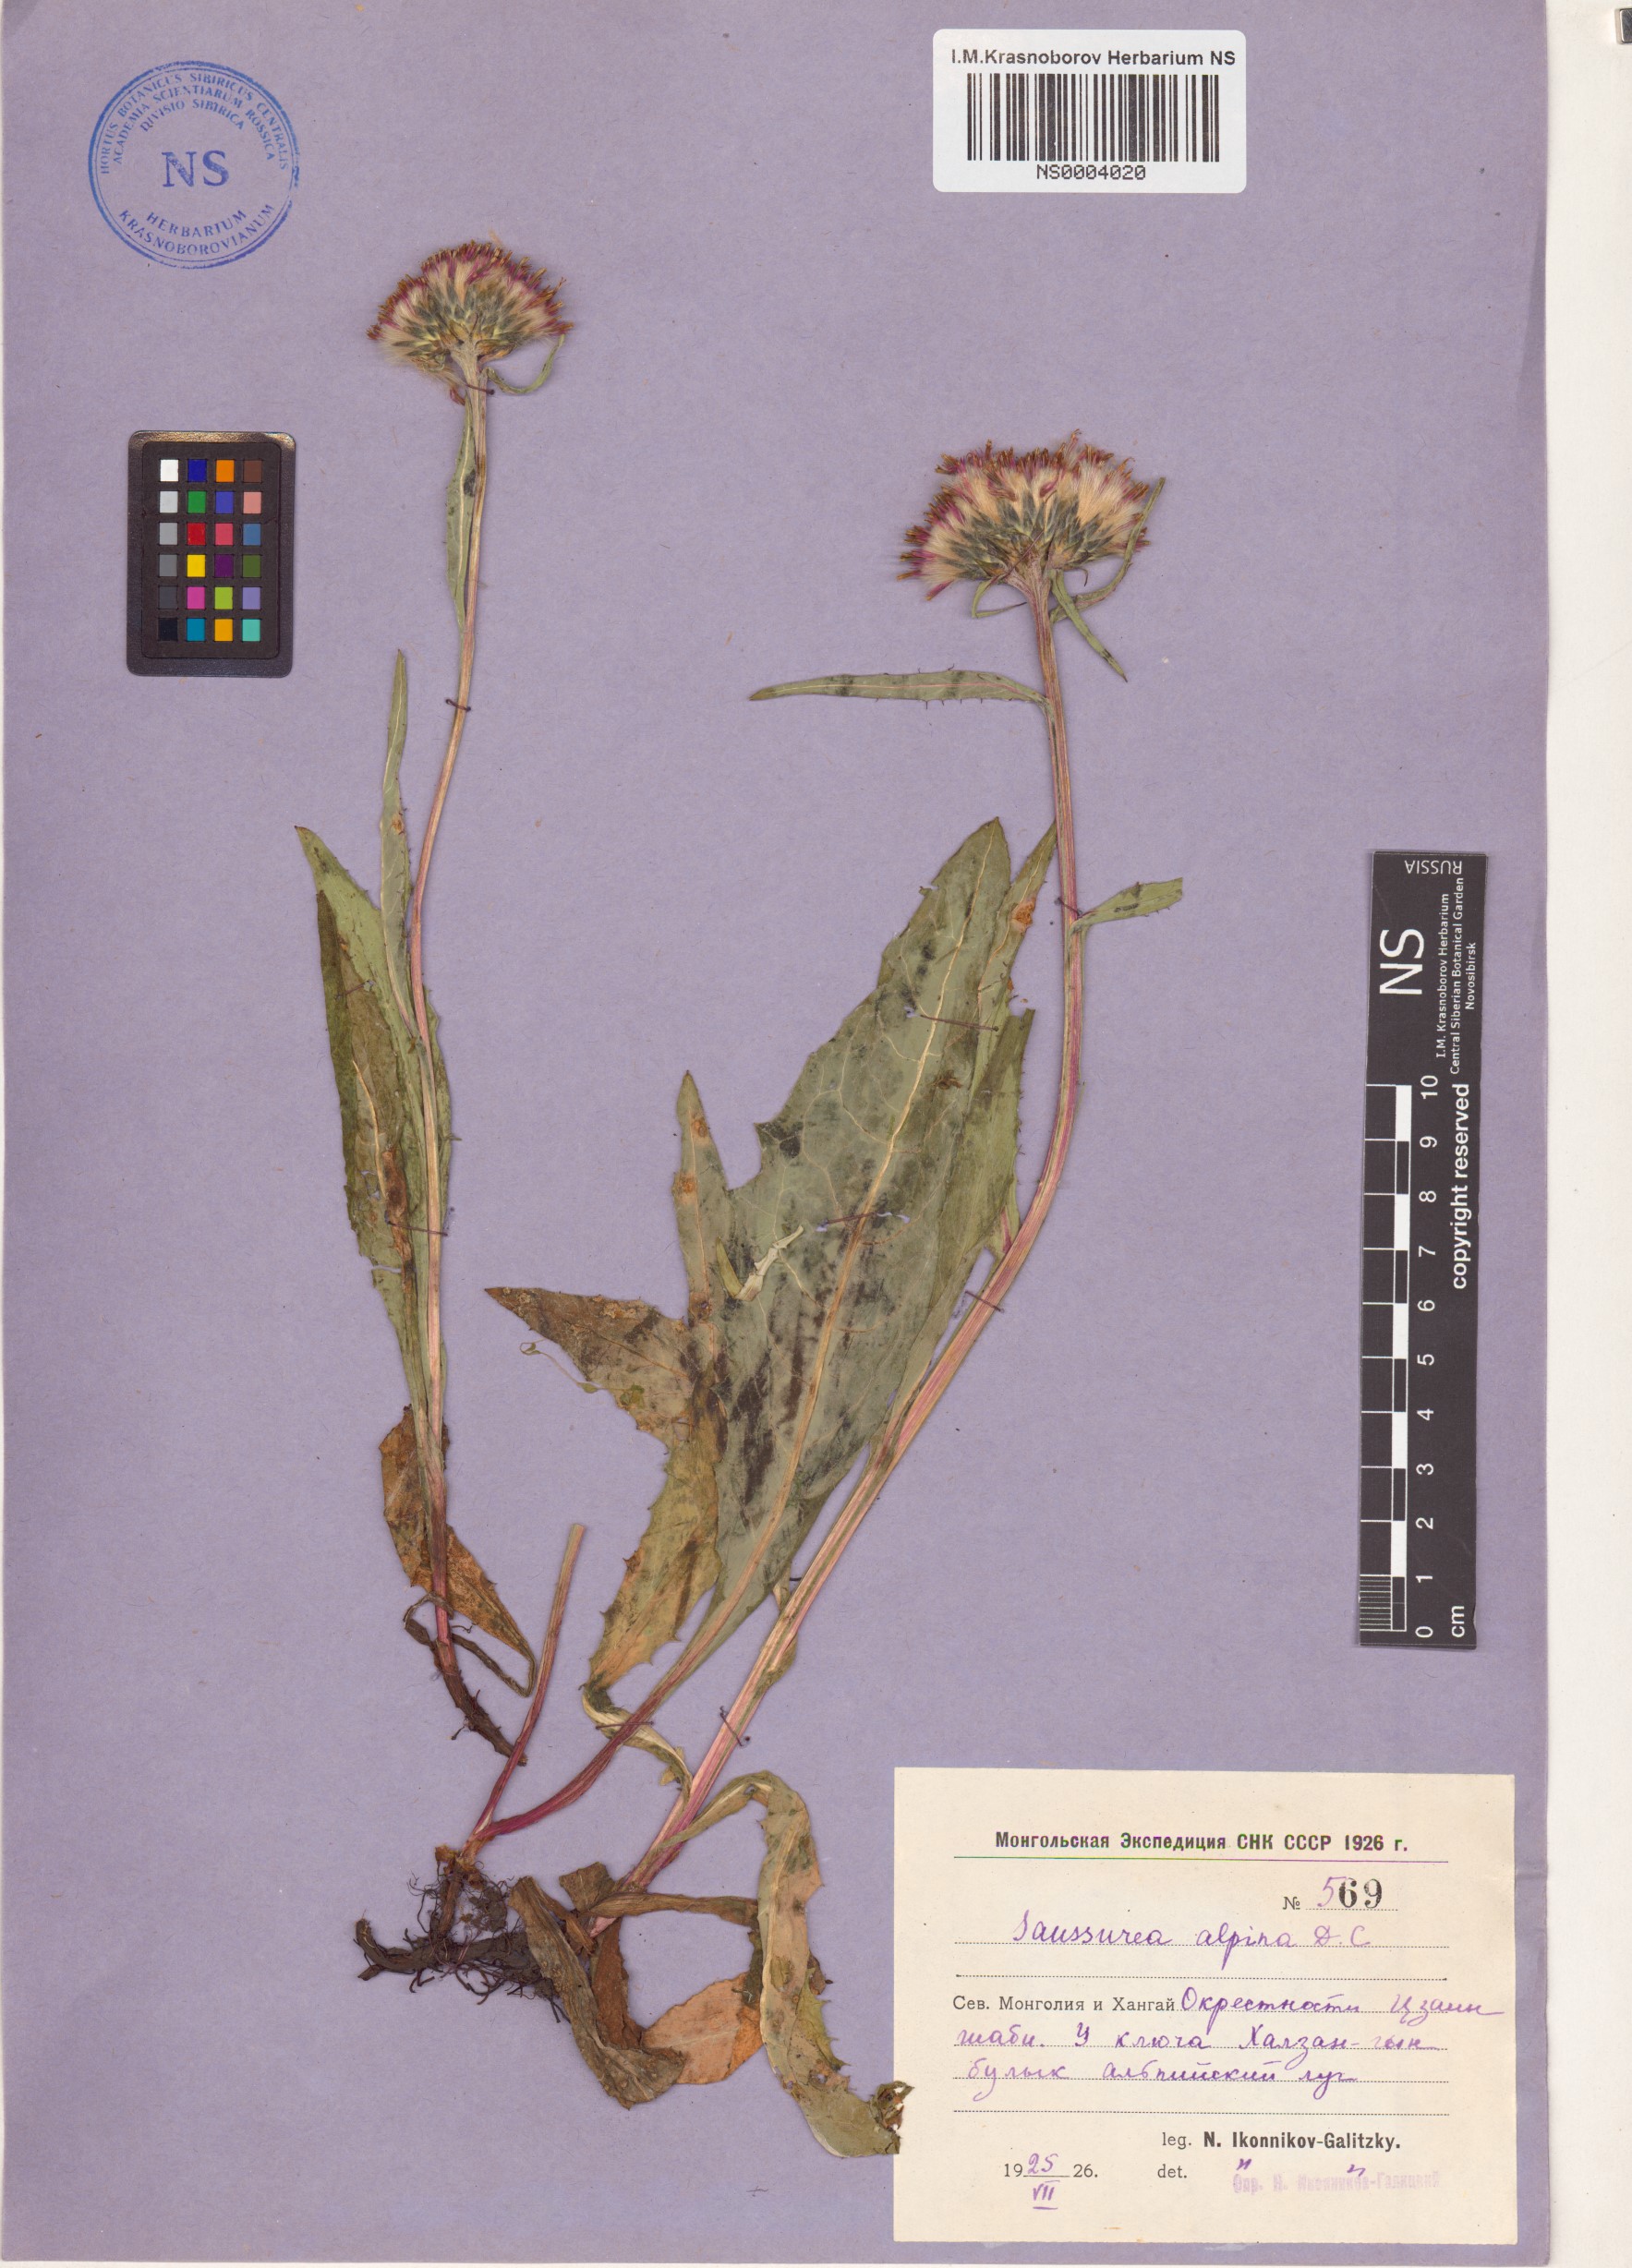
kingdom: Plantae
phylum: Tracheophyta
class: Magnoliopsida
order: Asterales
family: Asteraceae
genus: Saussurea
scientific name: Saussurea alpina
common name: Alpine saw-wort
